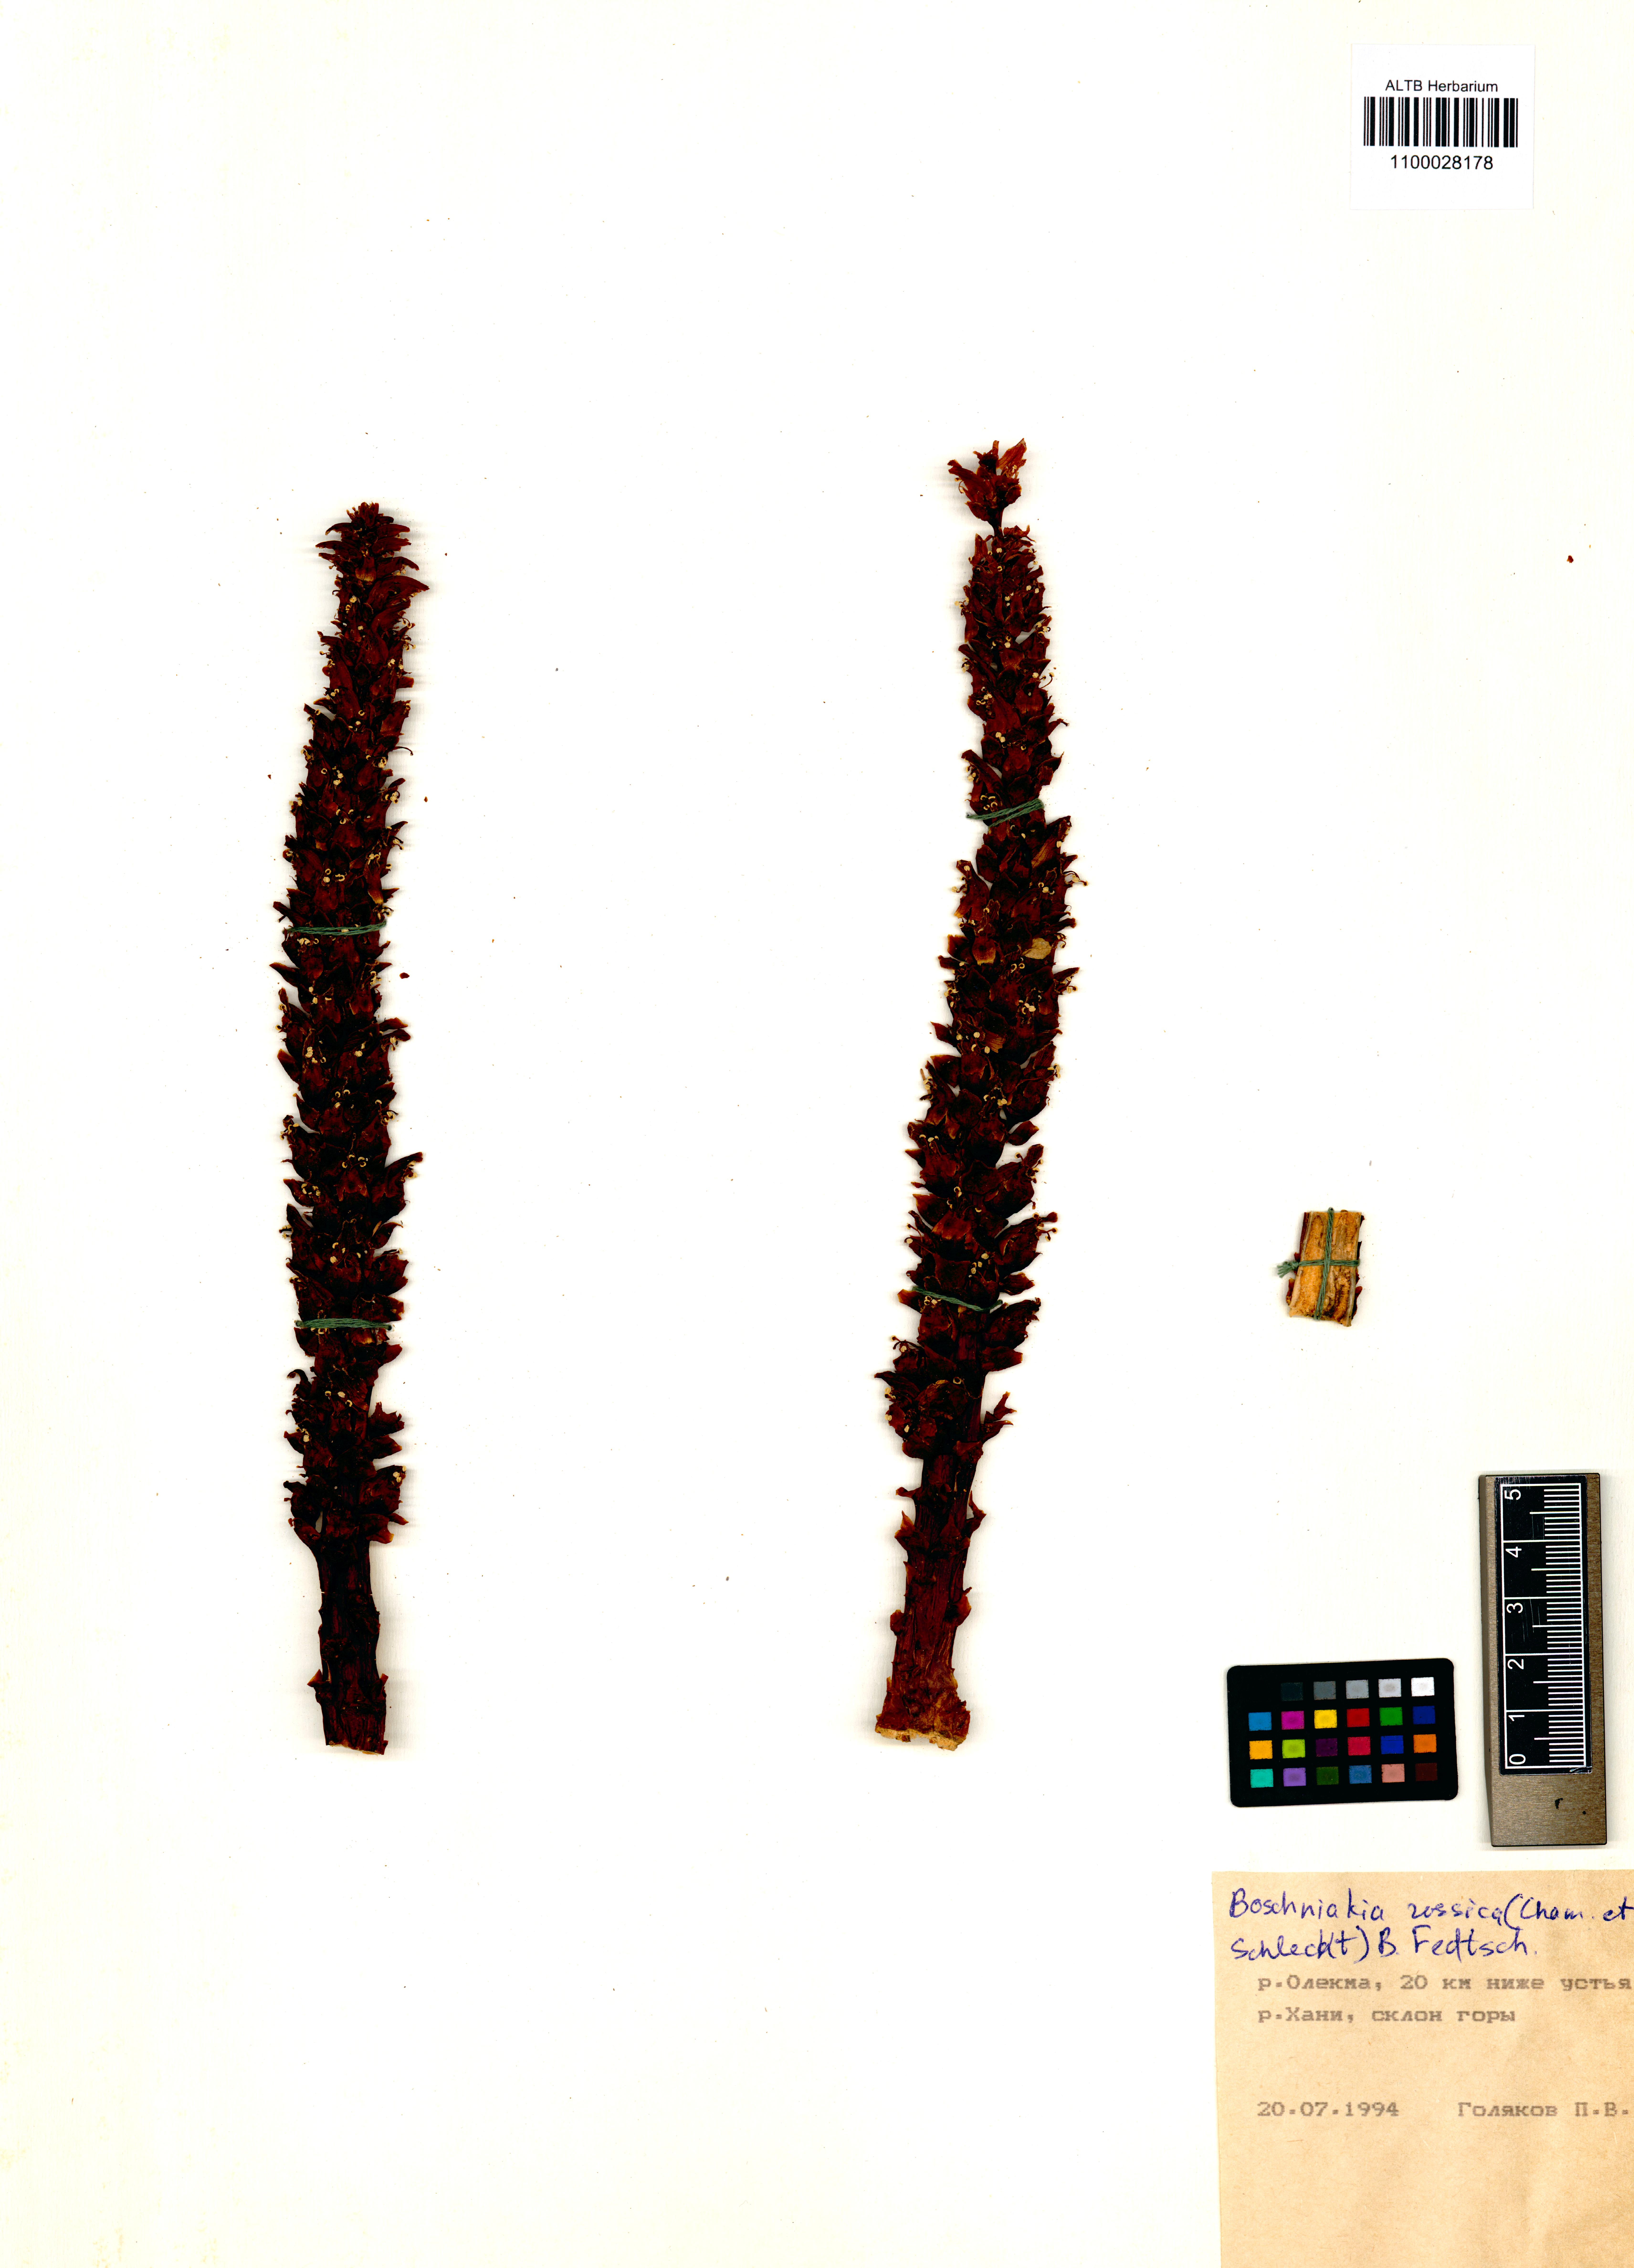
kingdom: Plantae
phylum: Tracheophyta
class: Magnoliopsida
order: Lamiales
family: Orobanchaceae
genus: Boschniakia
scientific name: Boschniakia rossica
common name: Poque
